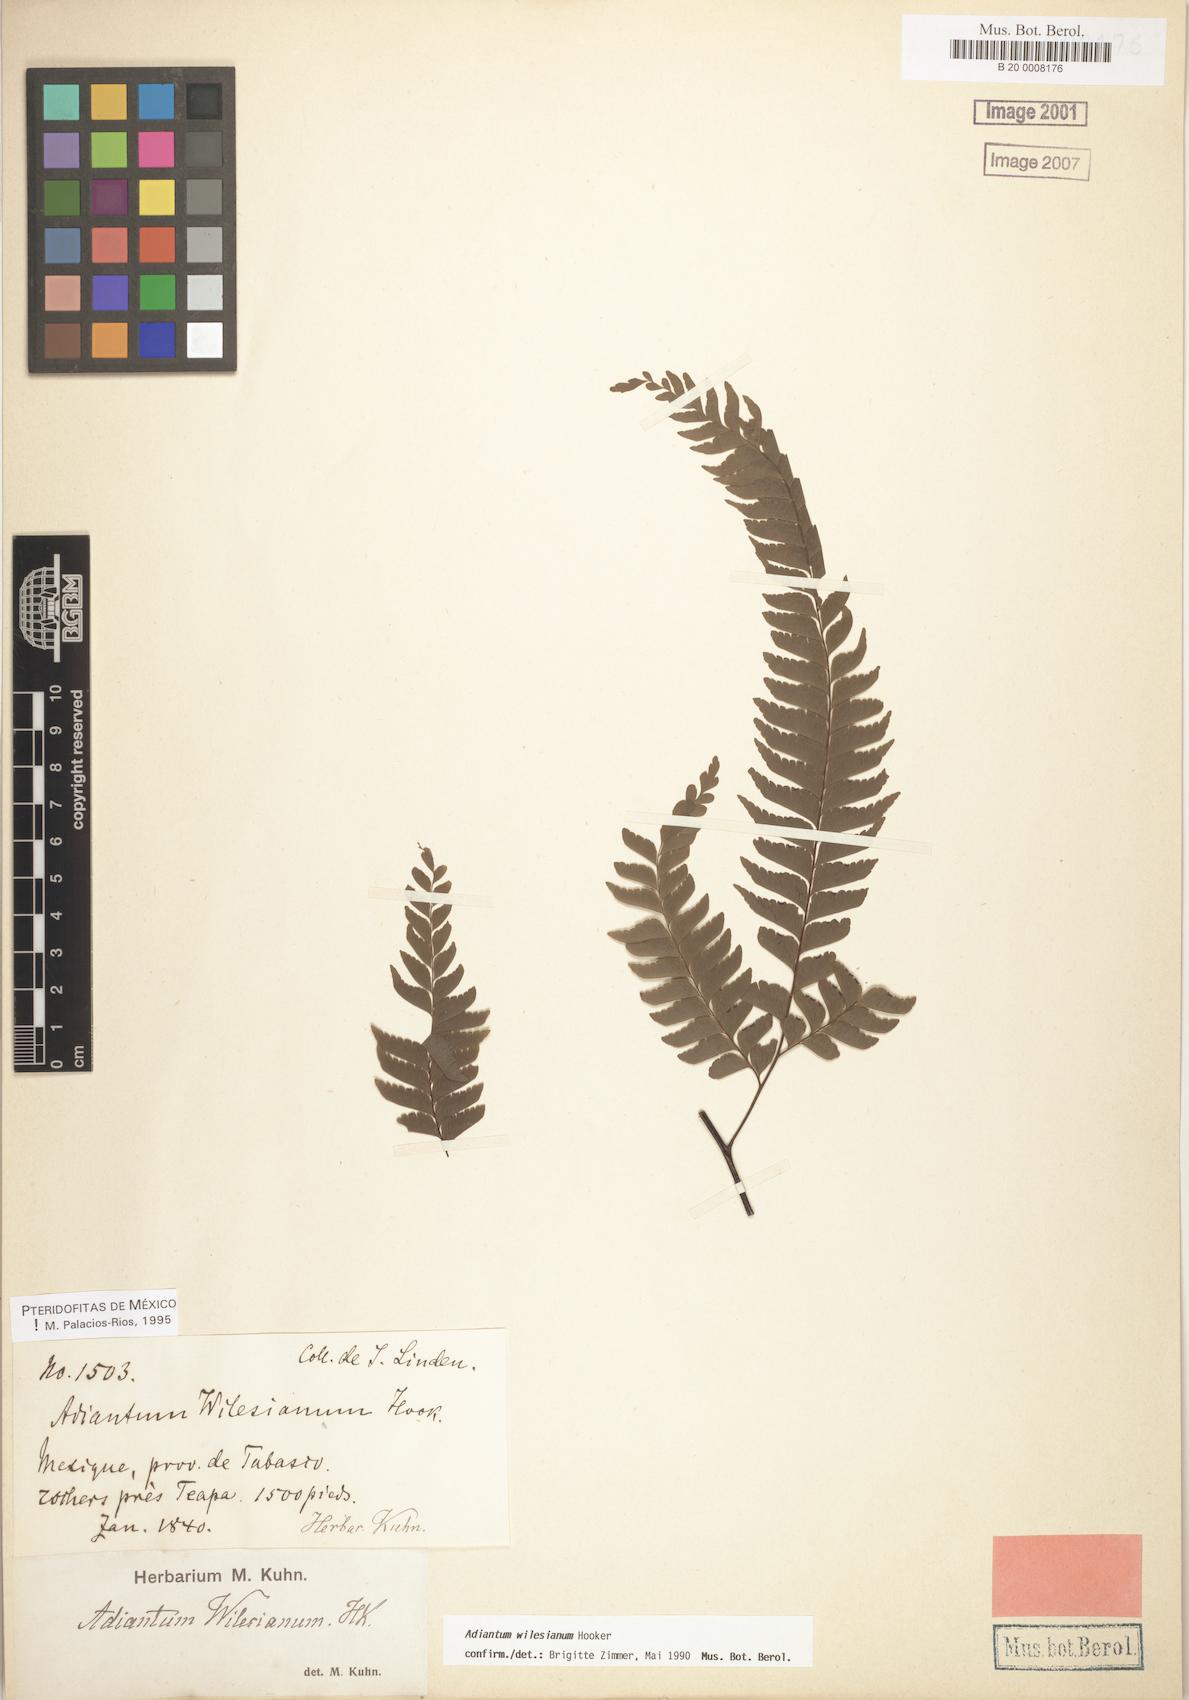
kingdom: Plantae
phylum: Tracheophyta
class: Polypodiopsida
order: Polypodiales
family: Pteridaceae
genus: Adiantum
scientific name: Adiantum wilesianum
